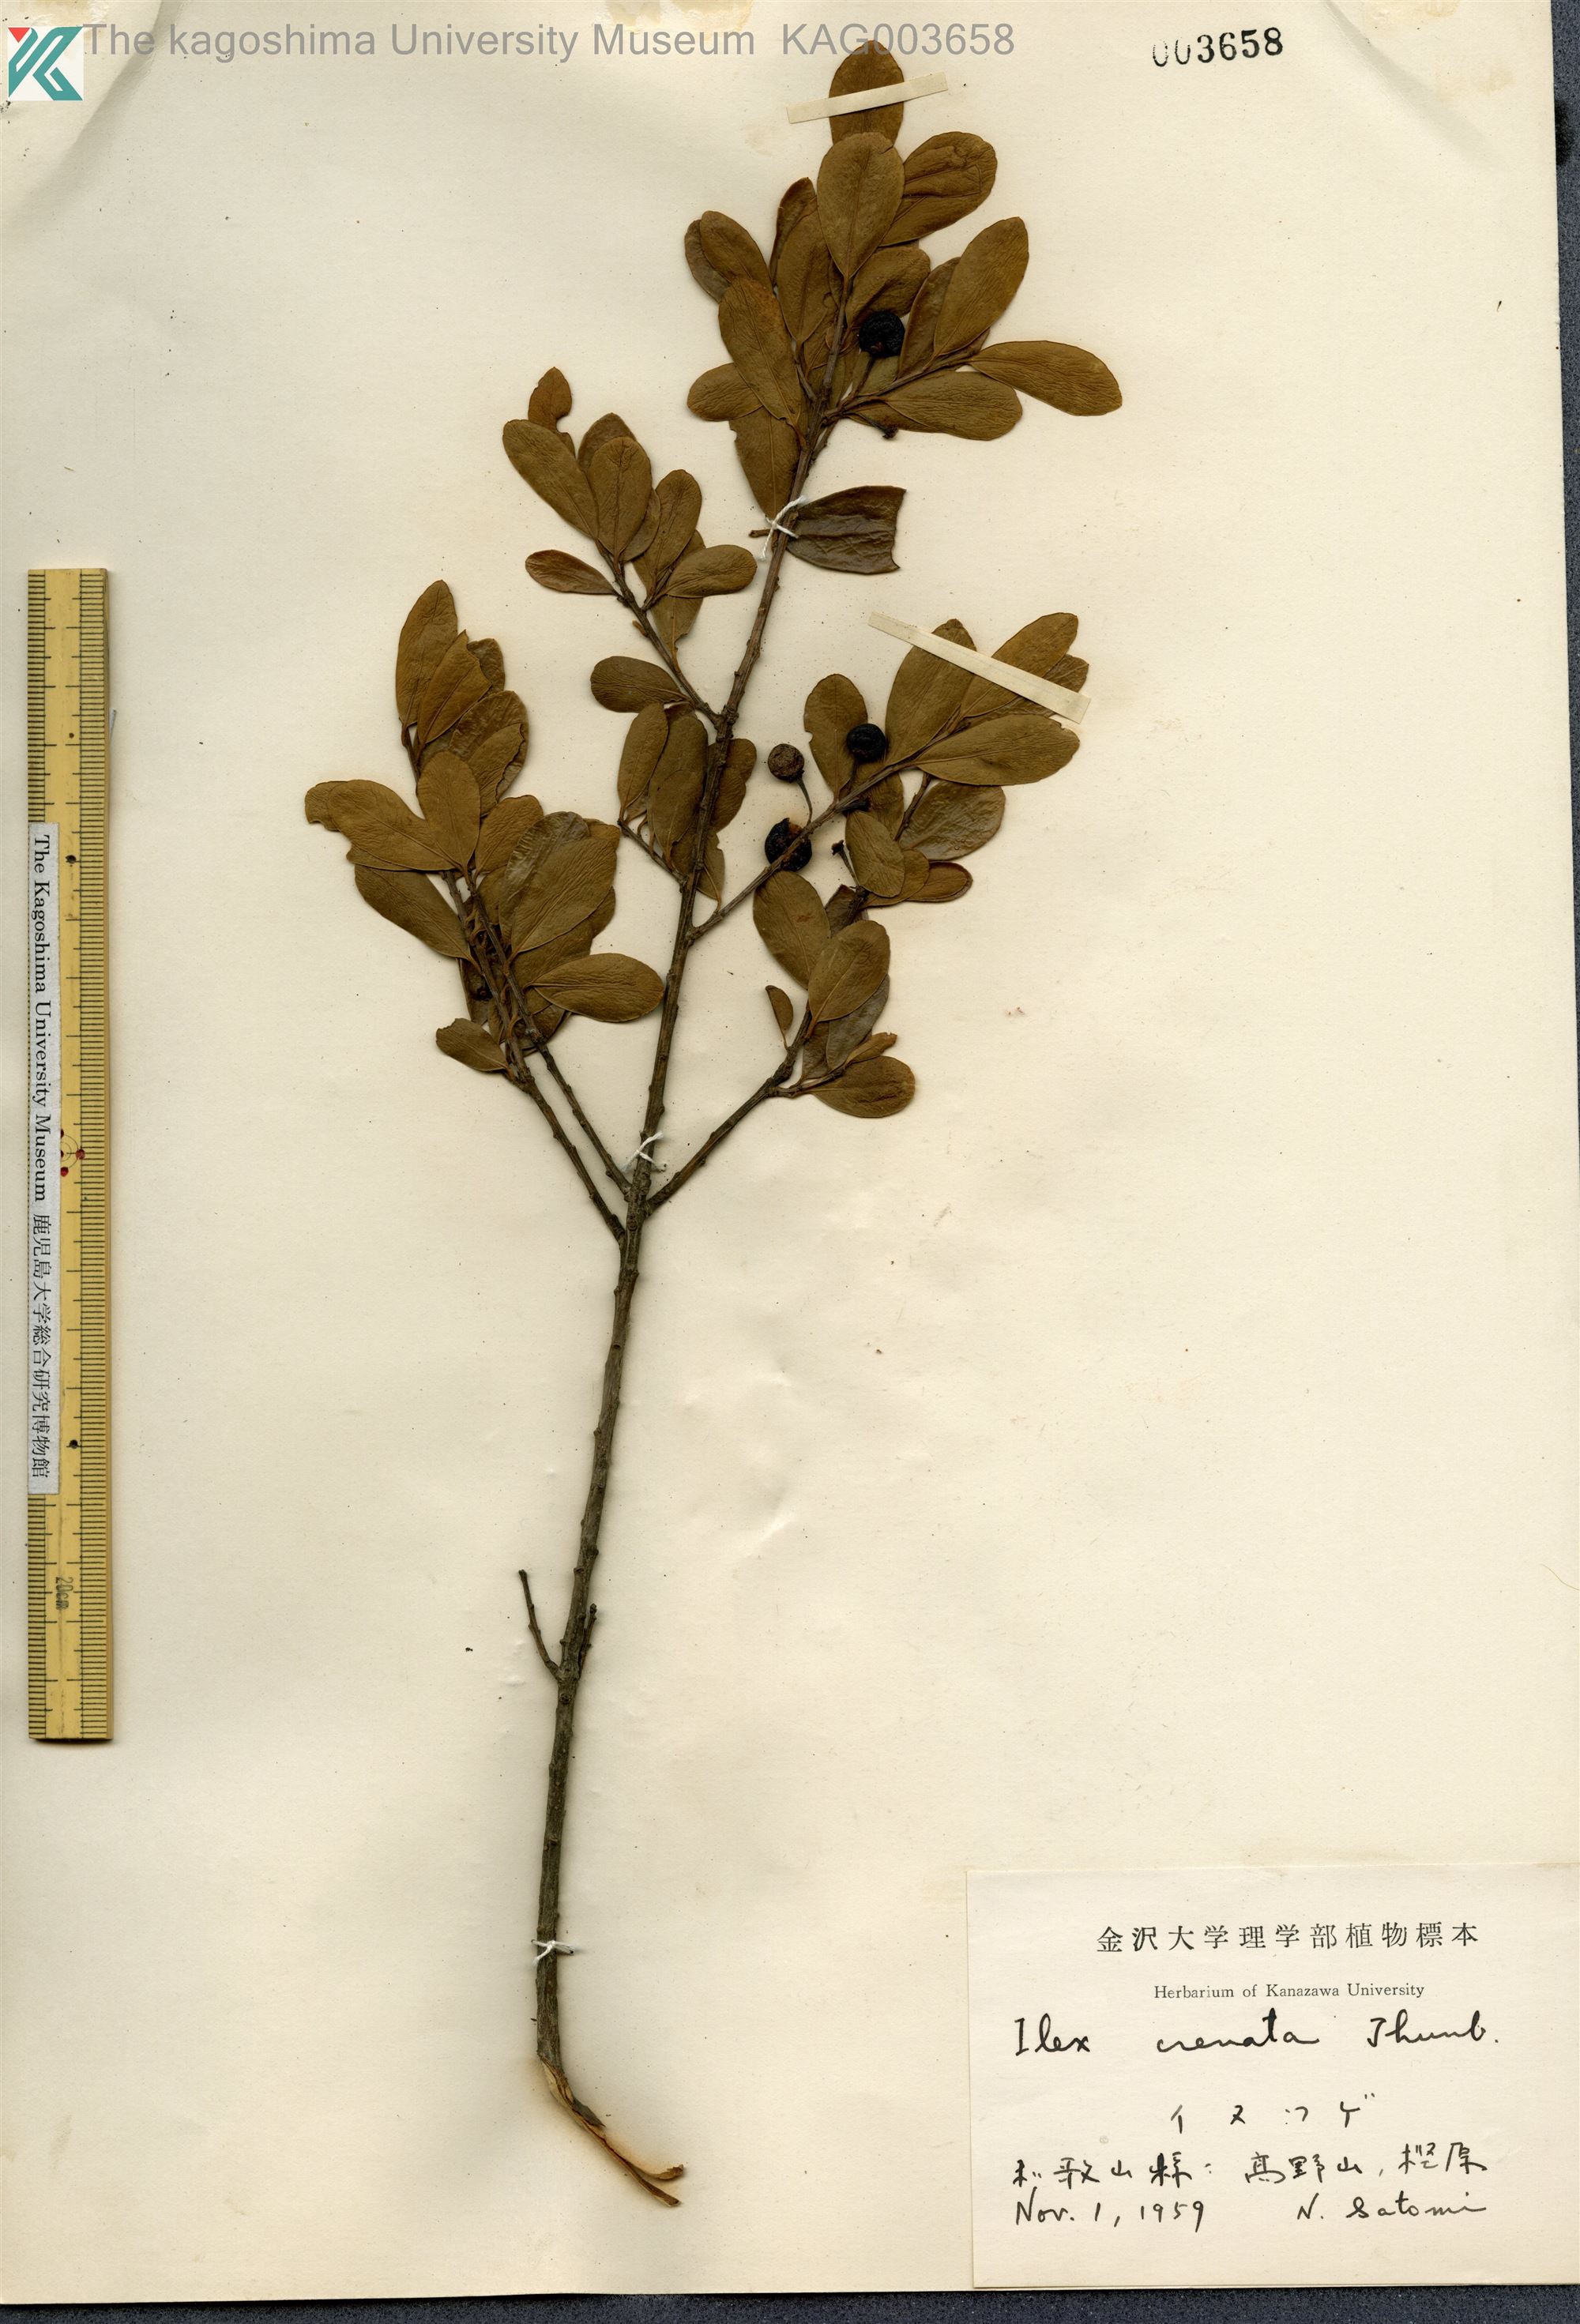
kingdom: Plantae
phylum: Tracheophyta
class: Magnoliopsida
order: Aquifoliales
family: Aquifoliaceae
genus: Ilex
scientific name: Ilex crenata
